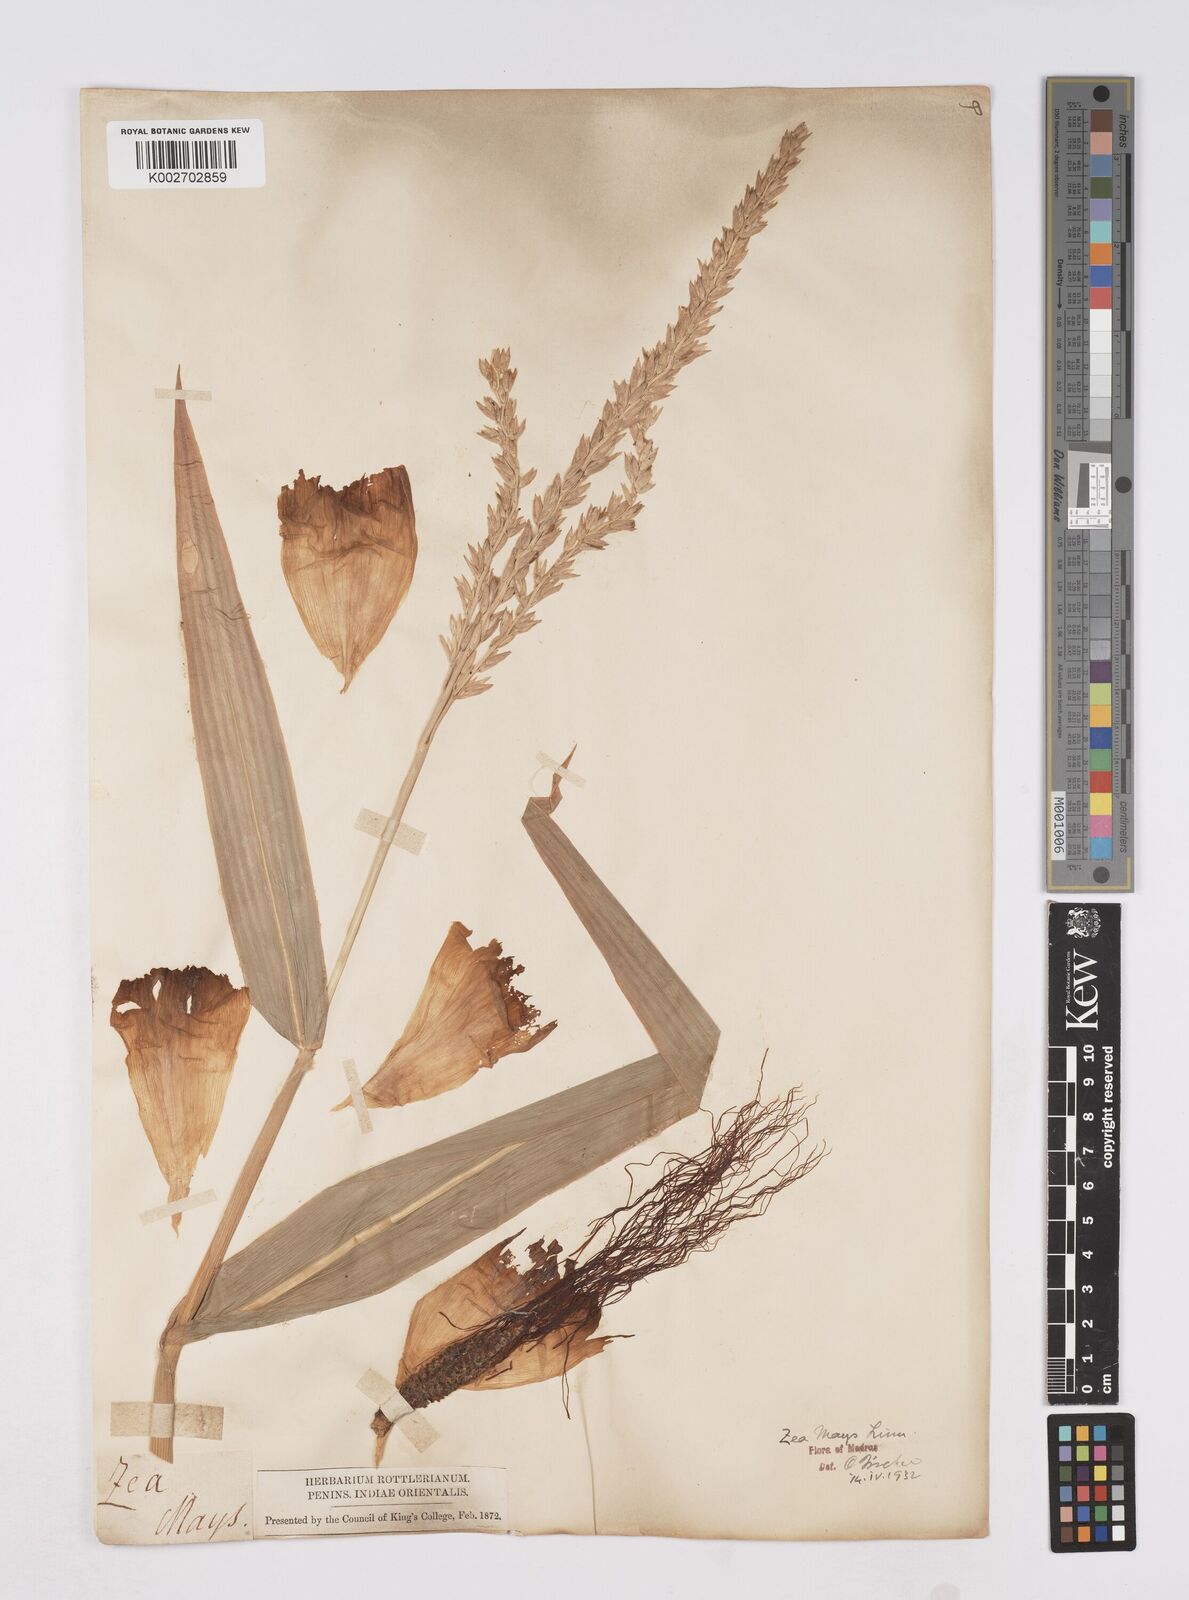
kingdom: Plantae
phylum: Tracheophyta
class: Liliopsida
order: Poales
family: Poaceae
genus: Zea
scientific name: Zea mays
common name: Maize
